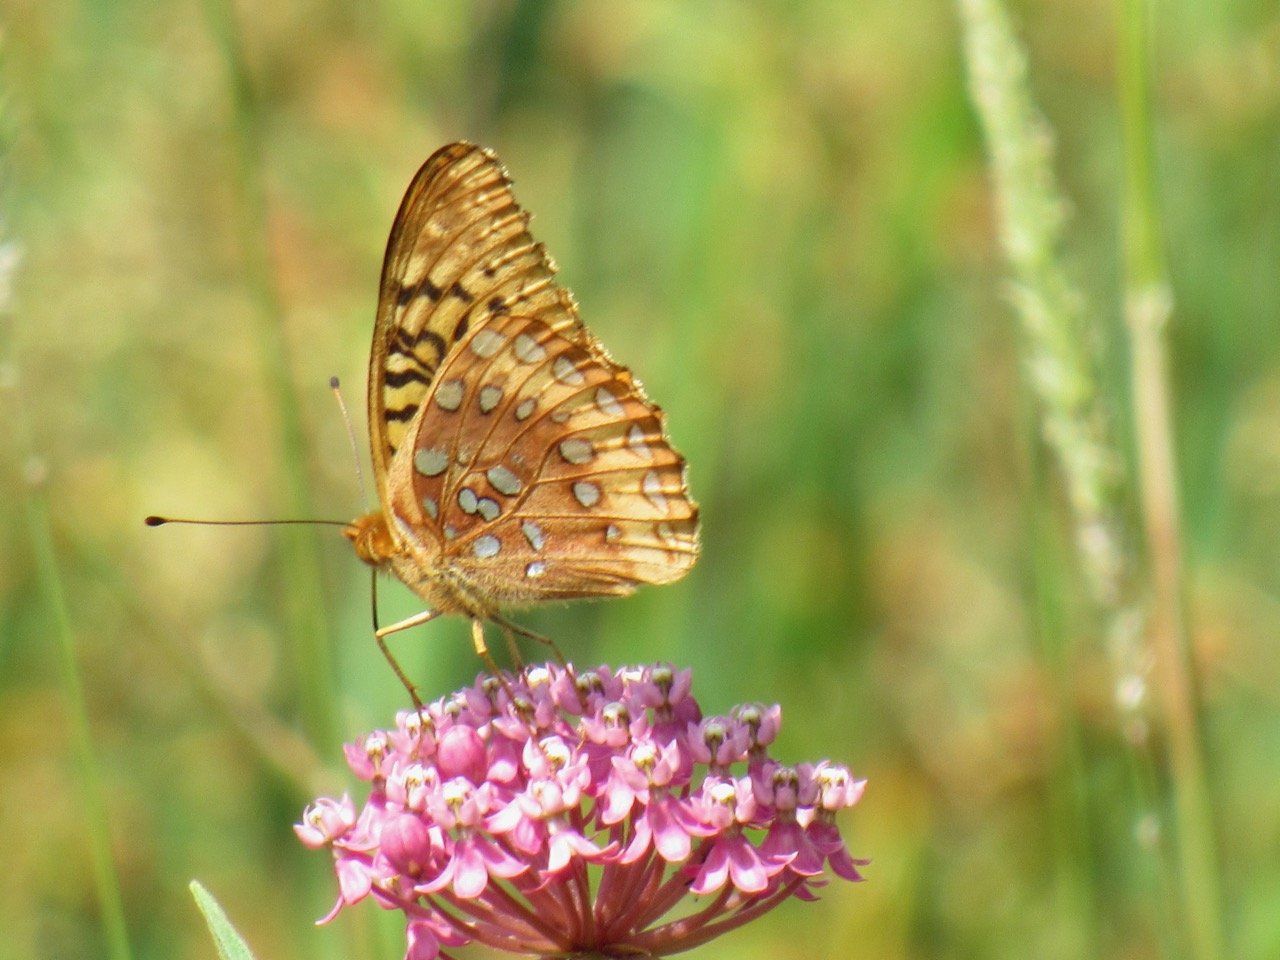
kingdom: Animalia
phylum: Arthropoda
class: Insecta
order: Lepidoptera
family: Nymphalidae
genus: Speyeria
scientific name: Speyeria cybele
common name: Great Spangled Fritillary
